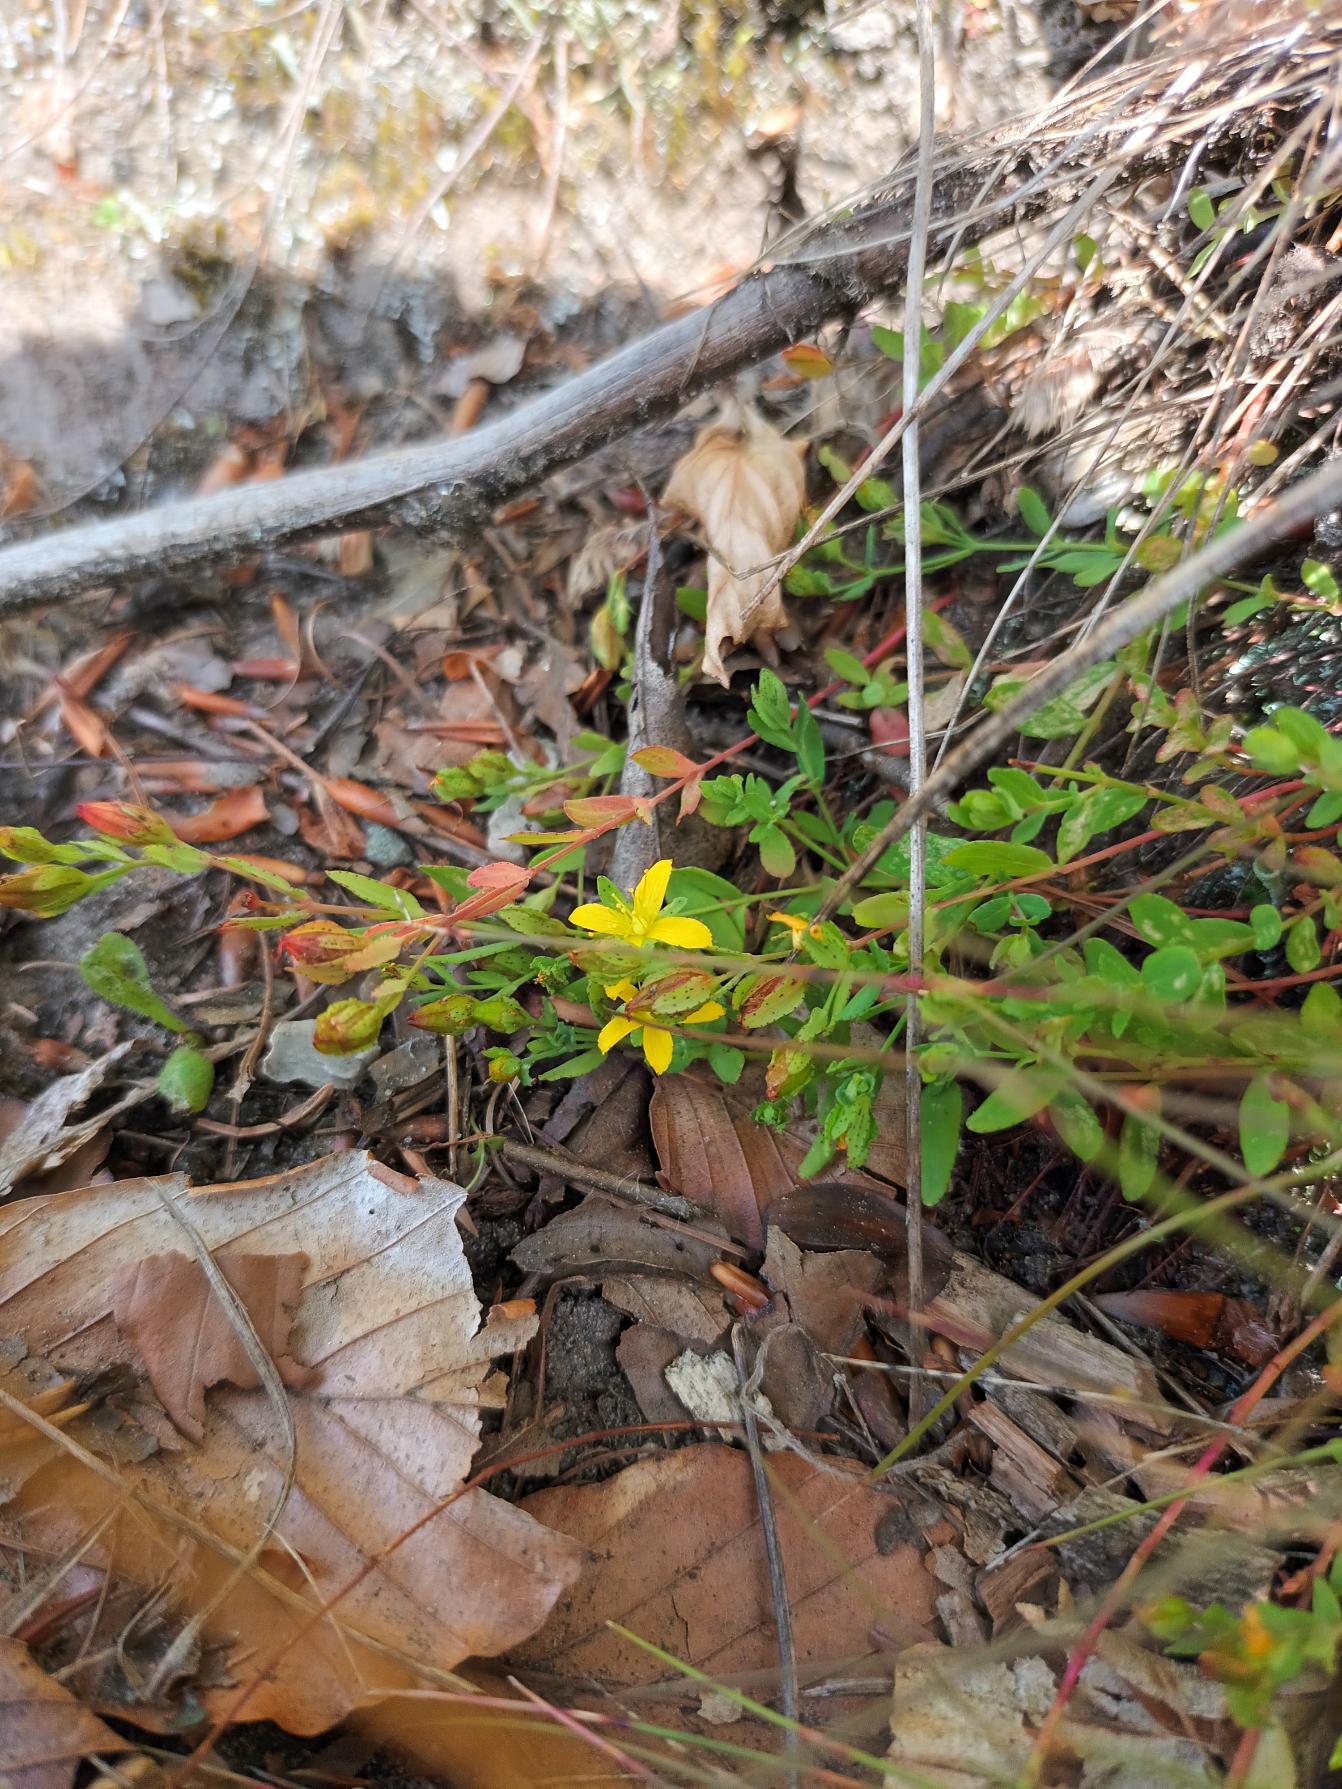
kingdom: Plantae
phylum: Tracheophyta
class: Magnoliopsida
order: Malpighiales
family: Hypericaceae
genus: Hypericum
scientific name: Hypericum humifusum
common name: Dværg-perikon
